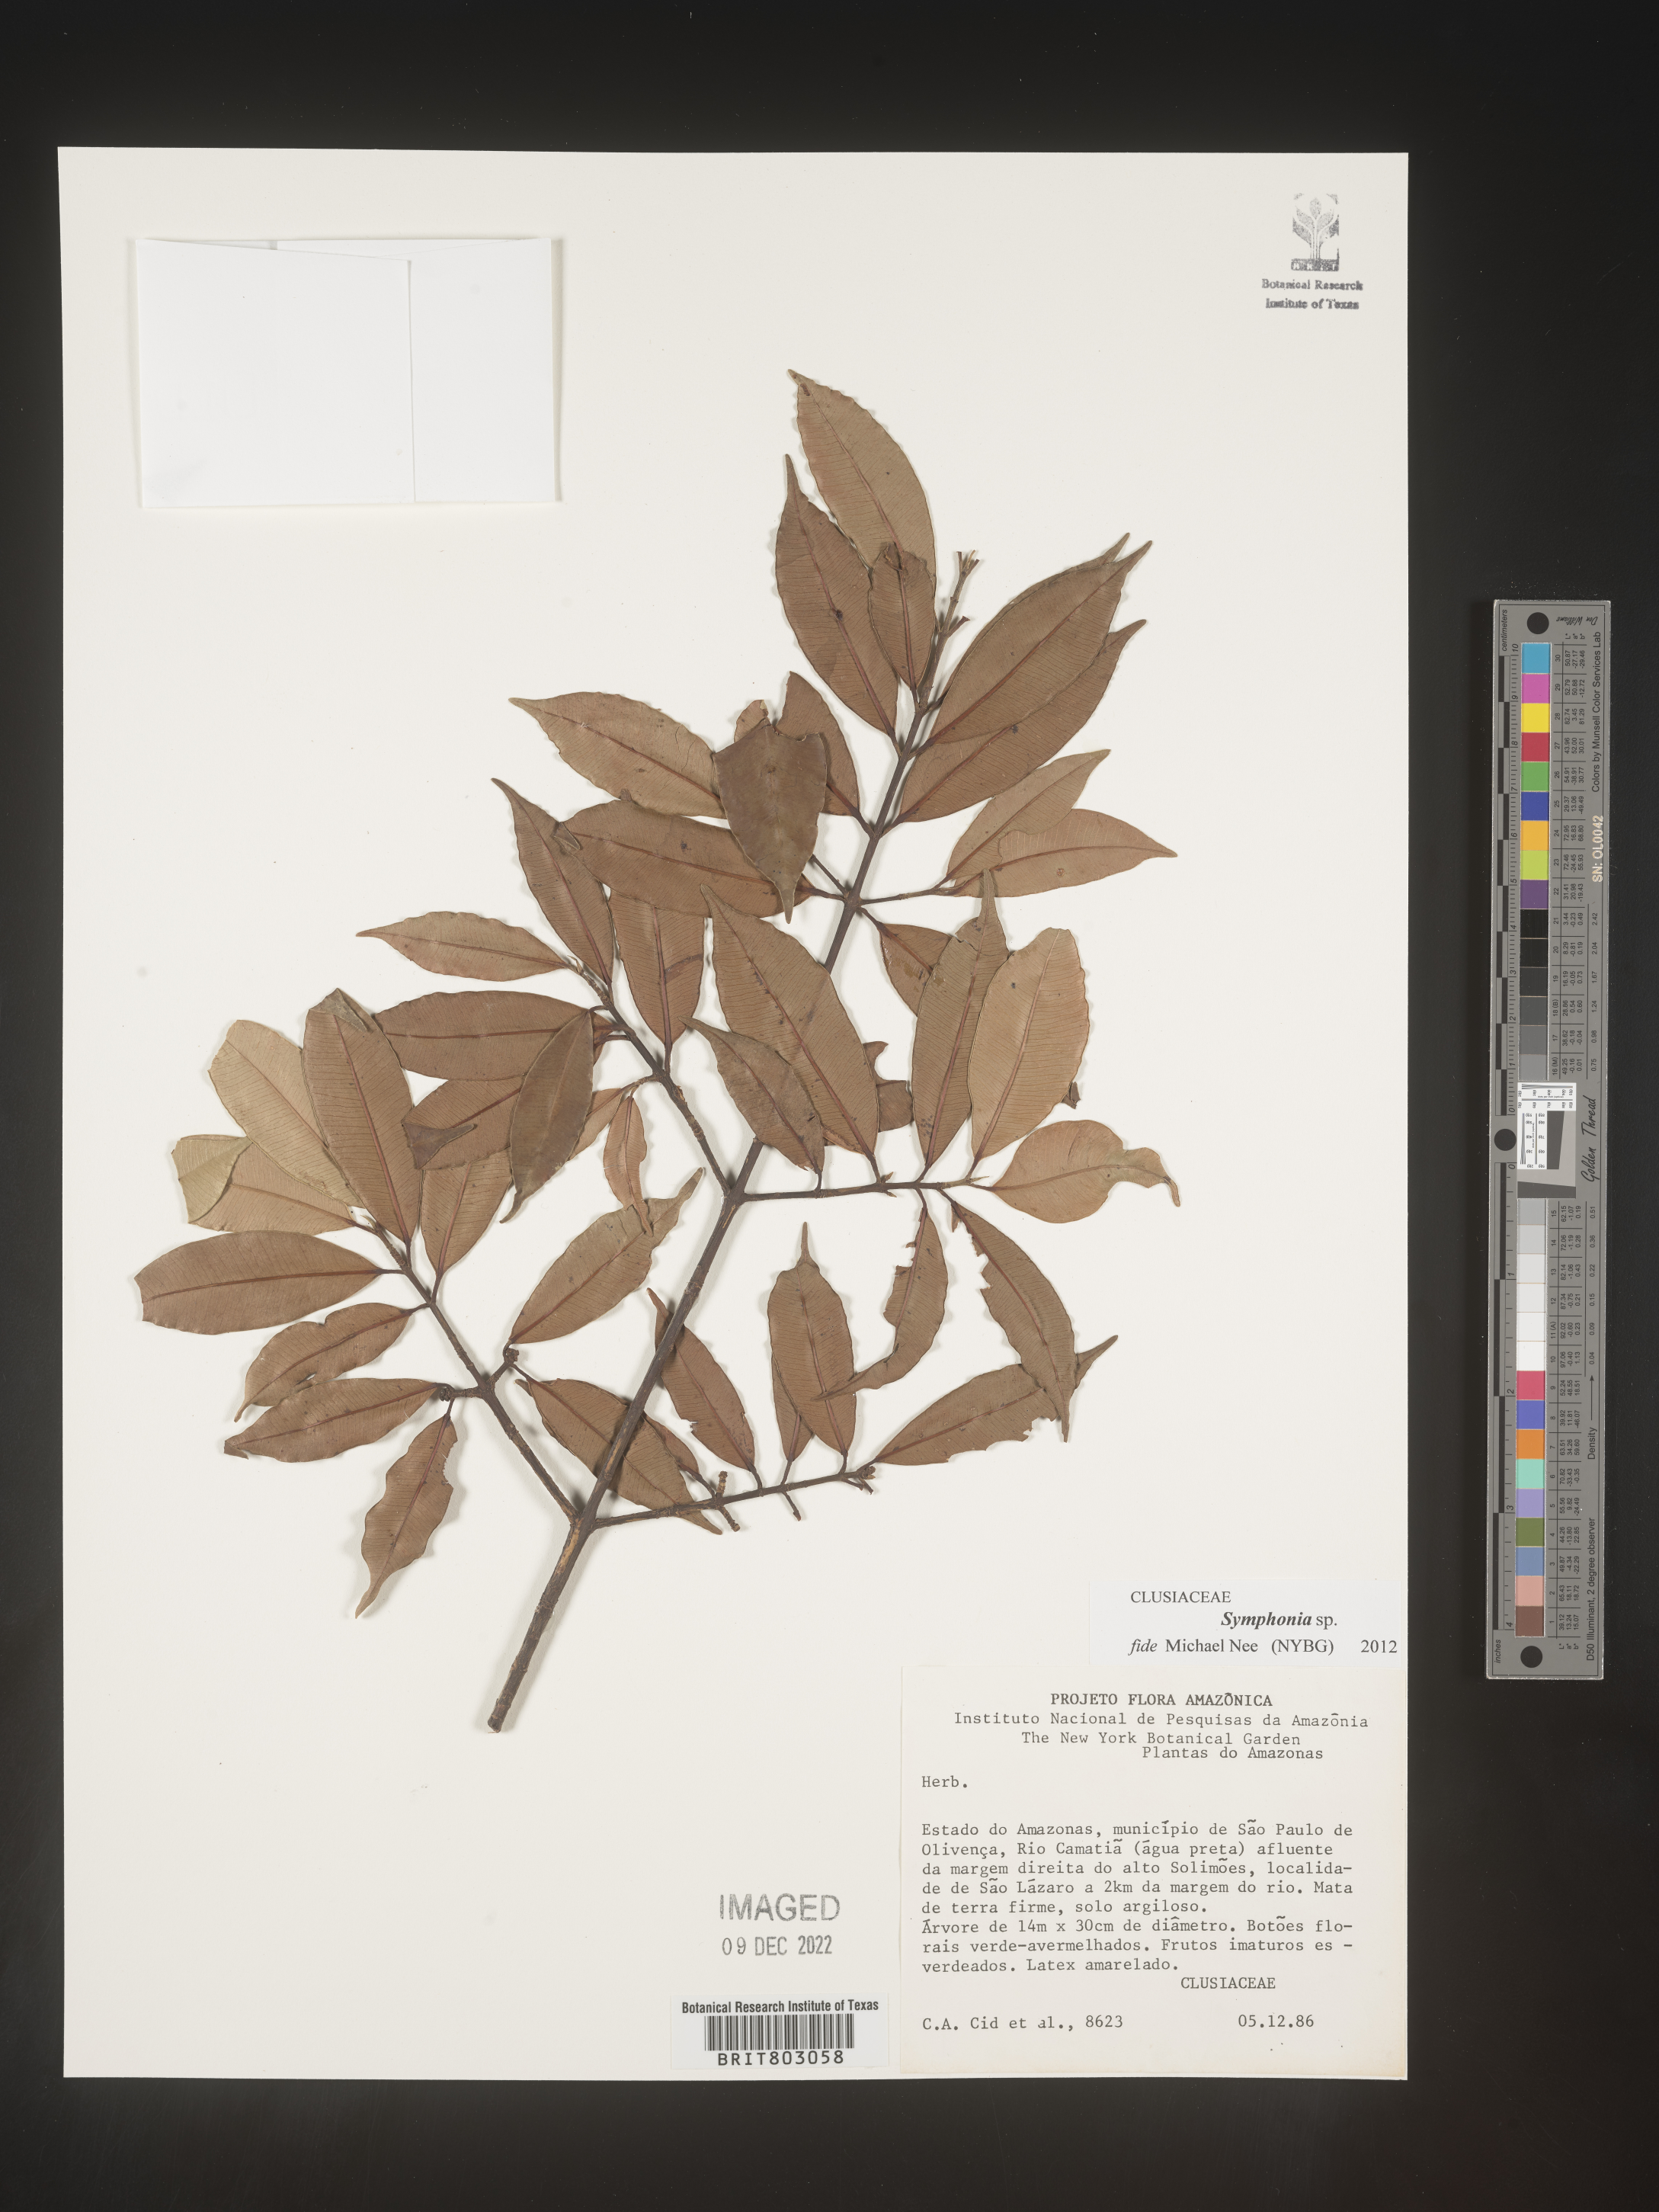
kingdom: Plantae
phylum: Tracheophyta
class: Magnoliopsida
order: Malpighiales
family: Clusiaceae
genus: Symphonia
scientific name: Symphonia
